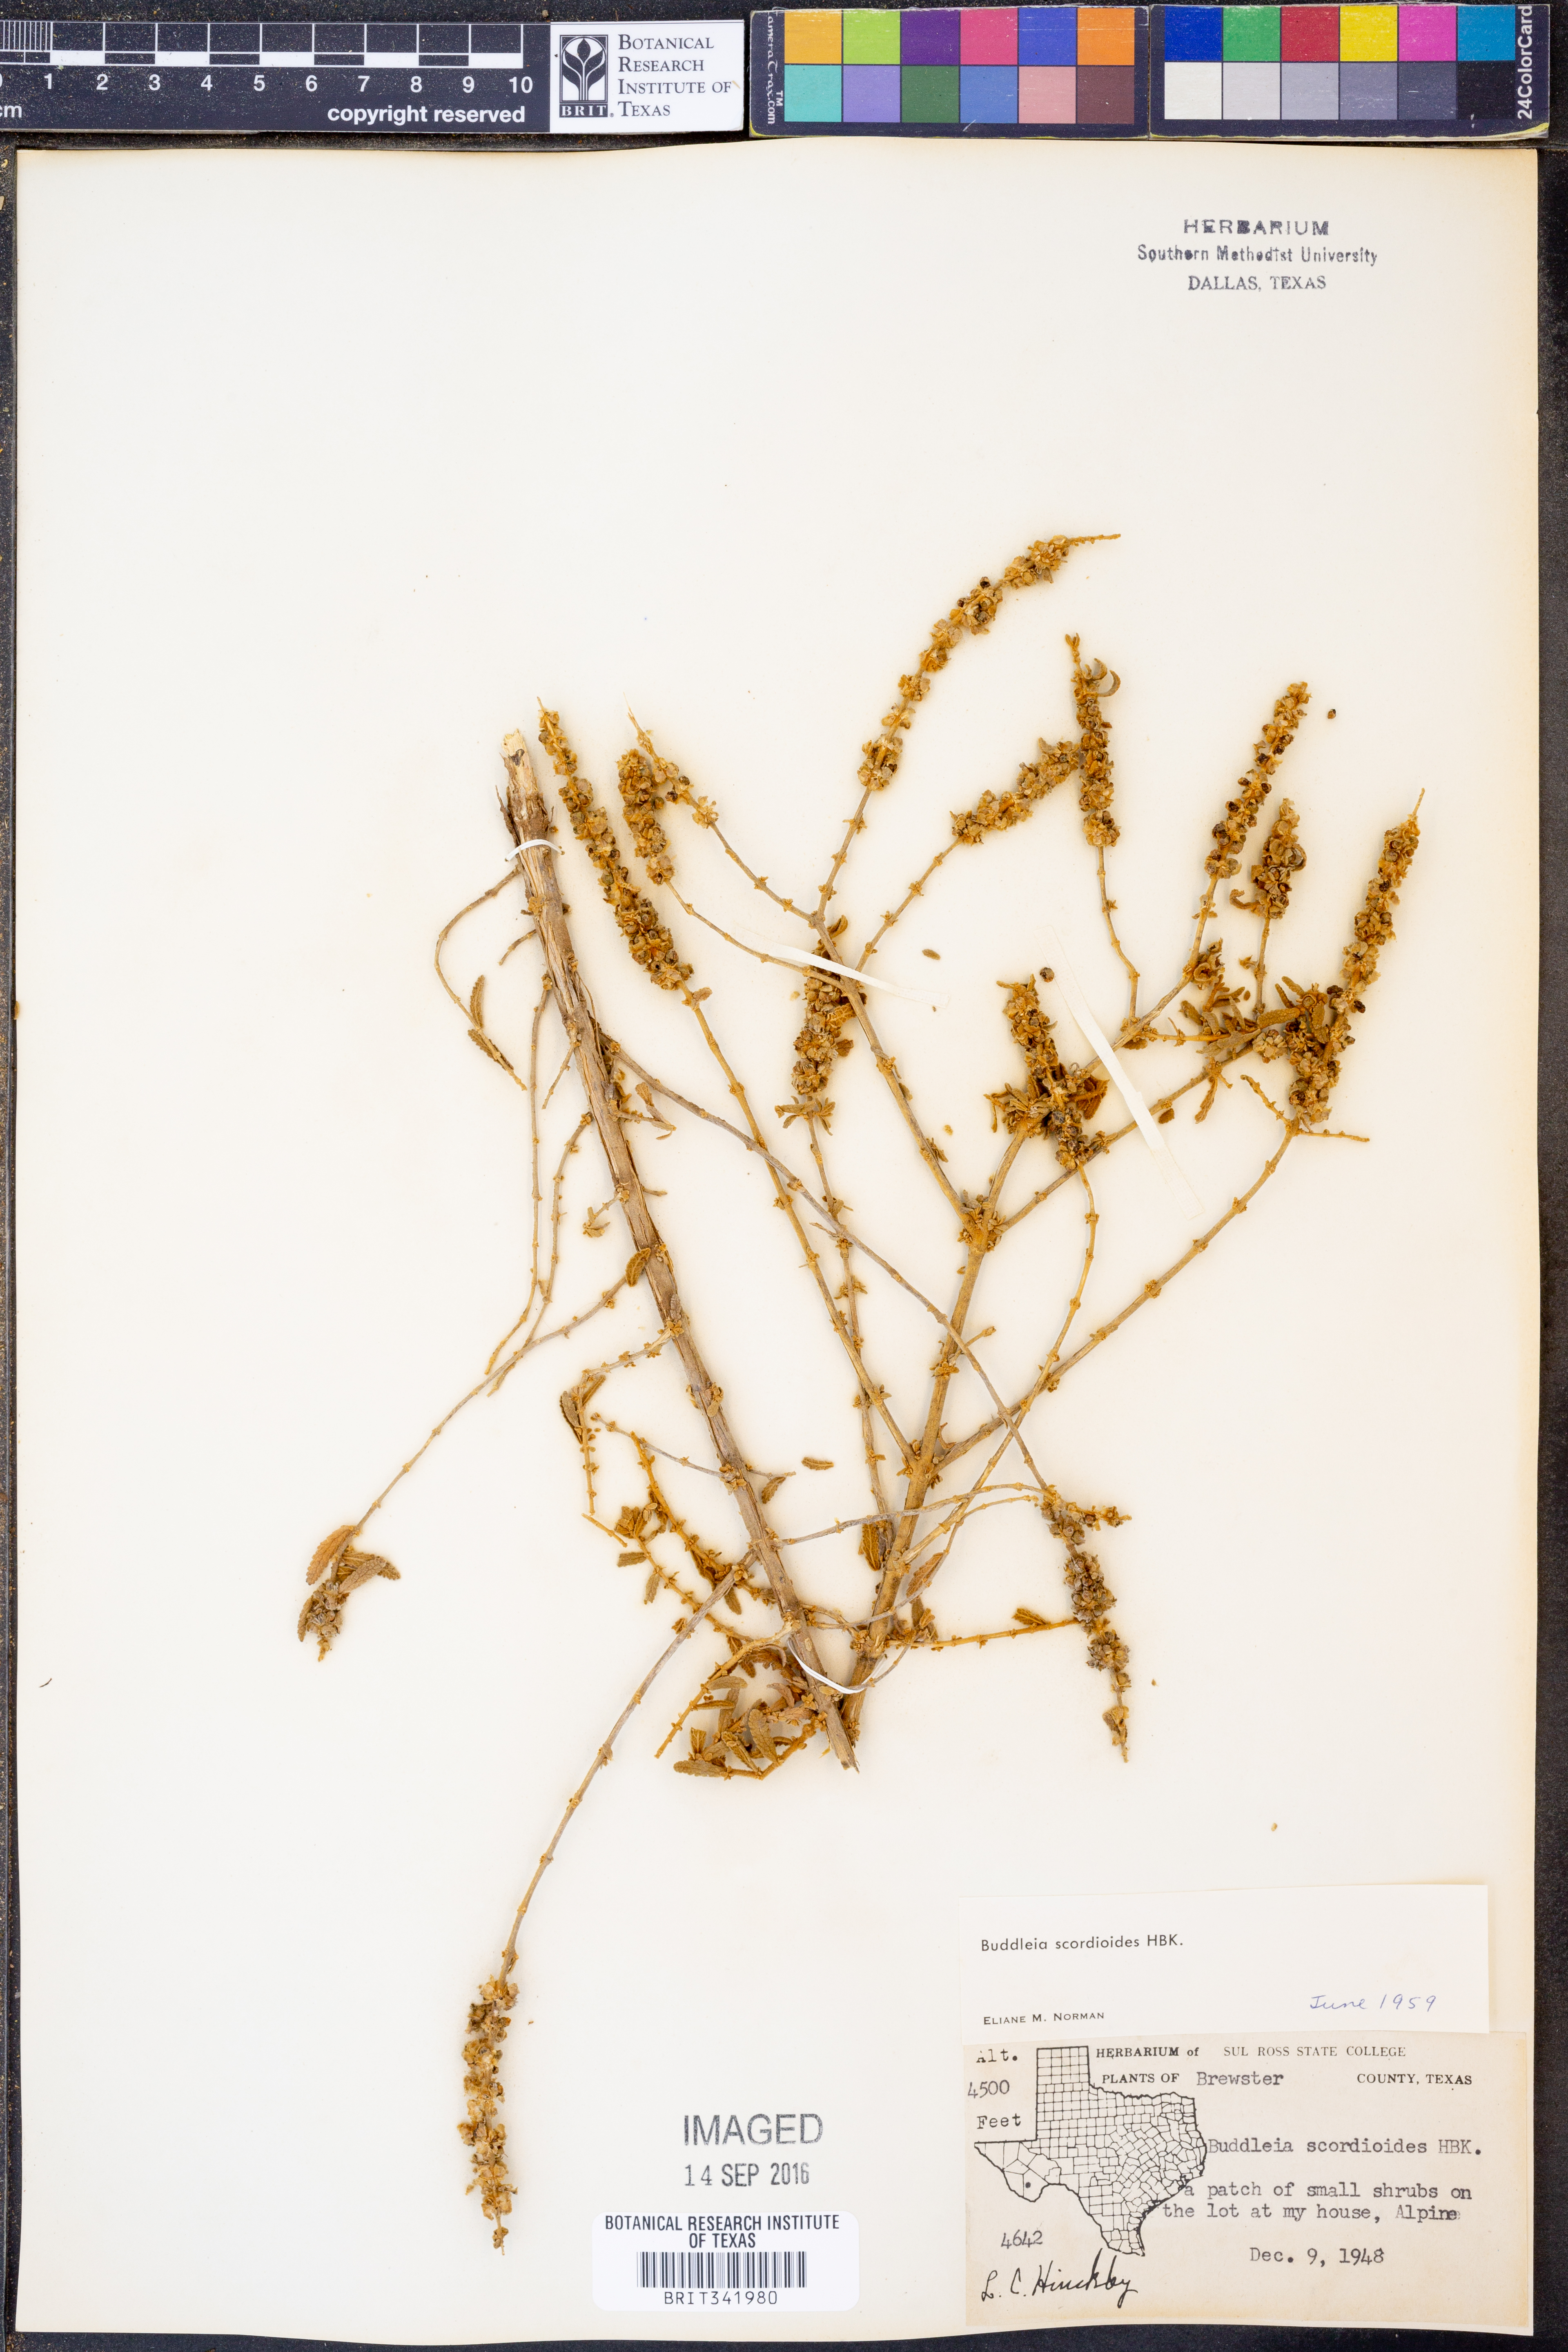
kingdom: Plantae
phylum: Tracheophyta
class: Magnoliopsida
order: Lamiales
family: Scrophulariaceae
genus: Buddleja
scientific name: Buddleja scordioides
